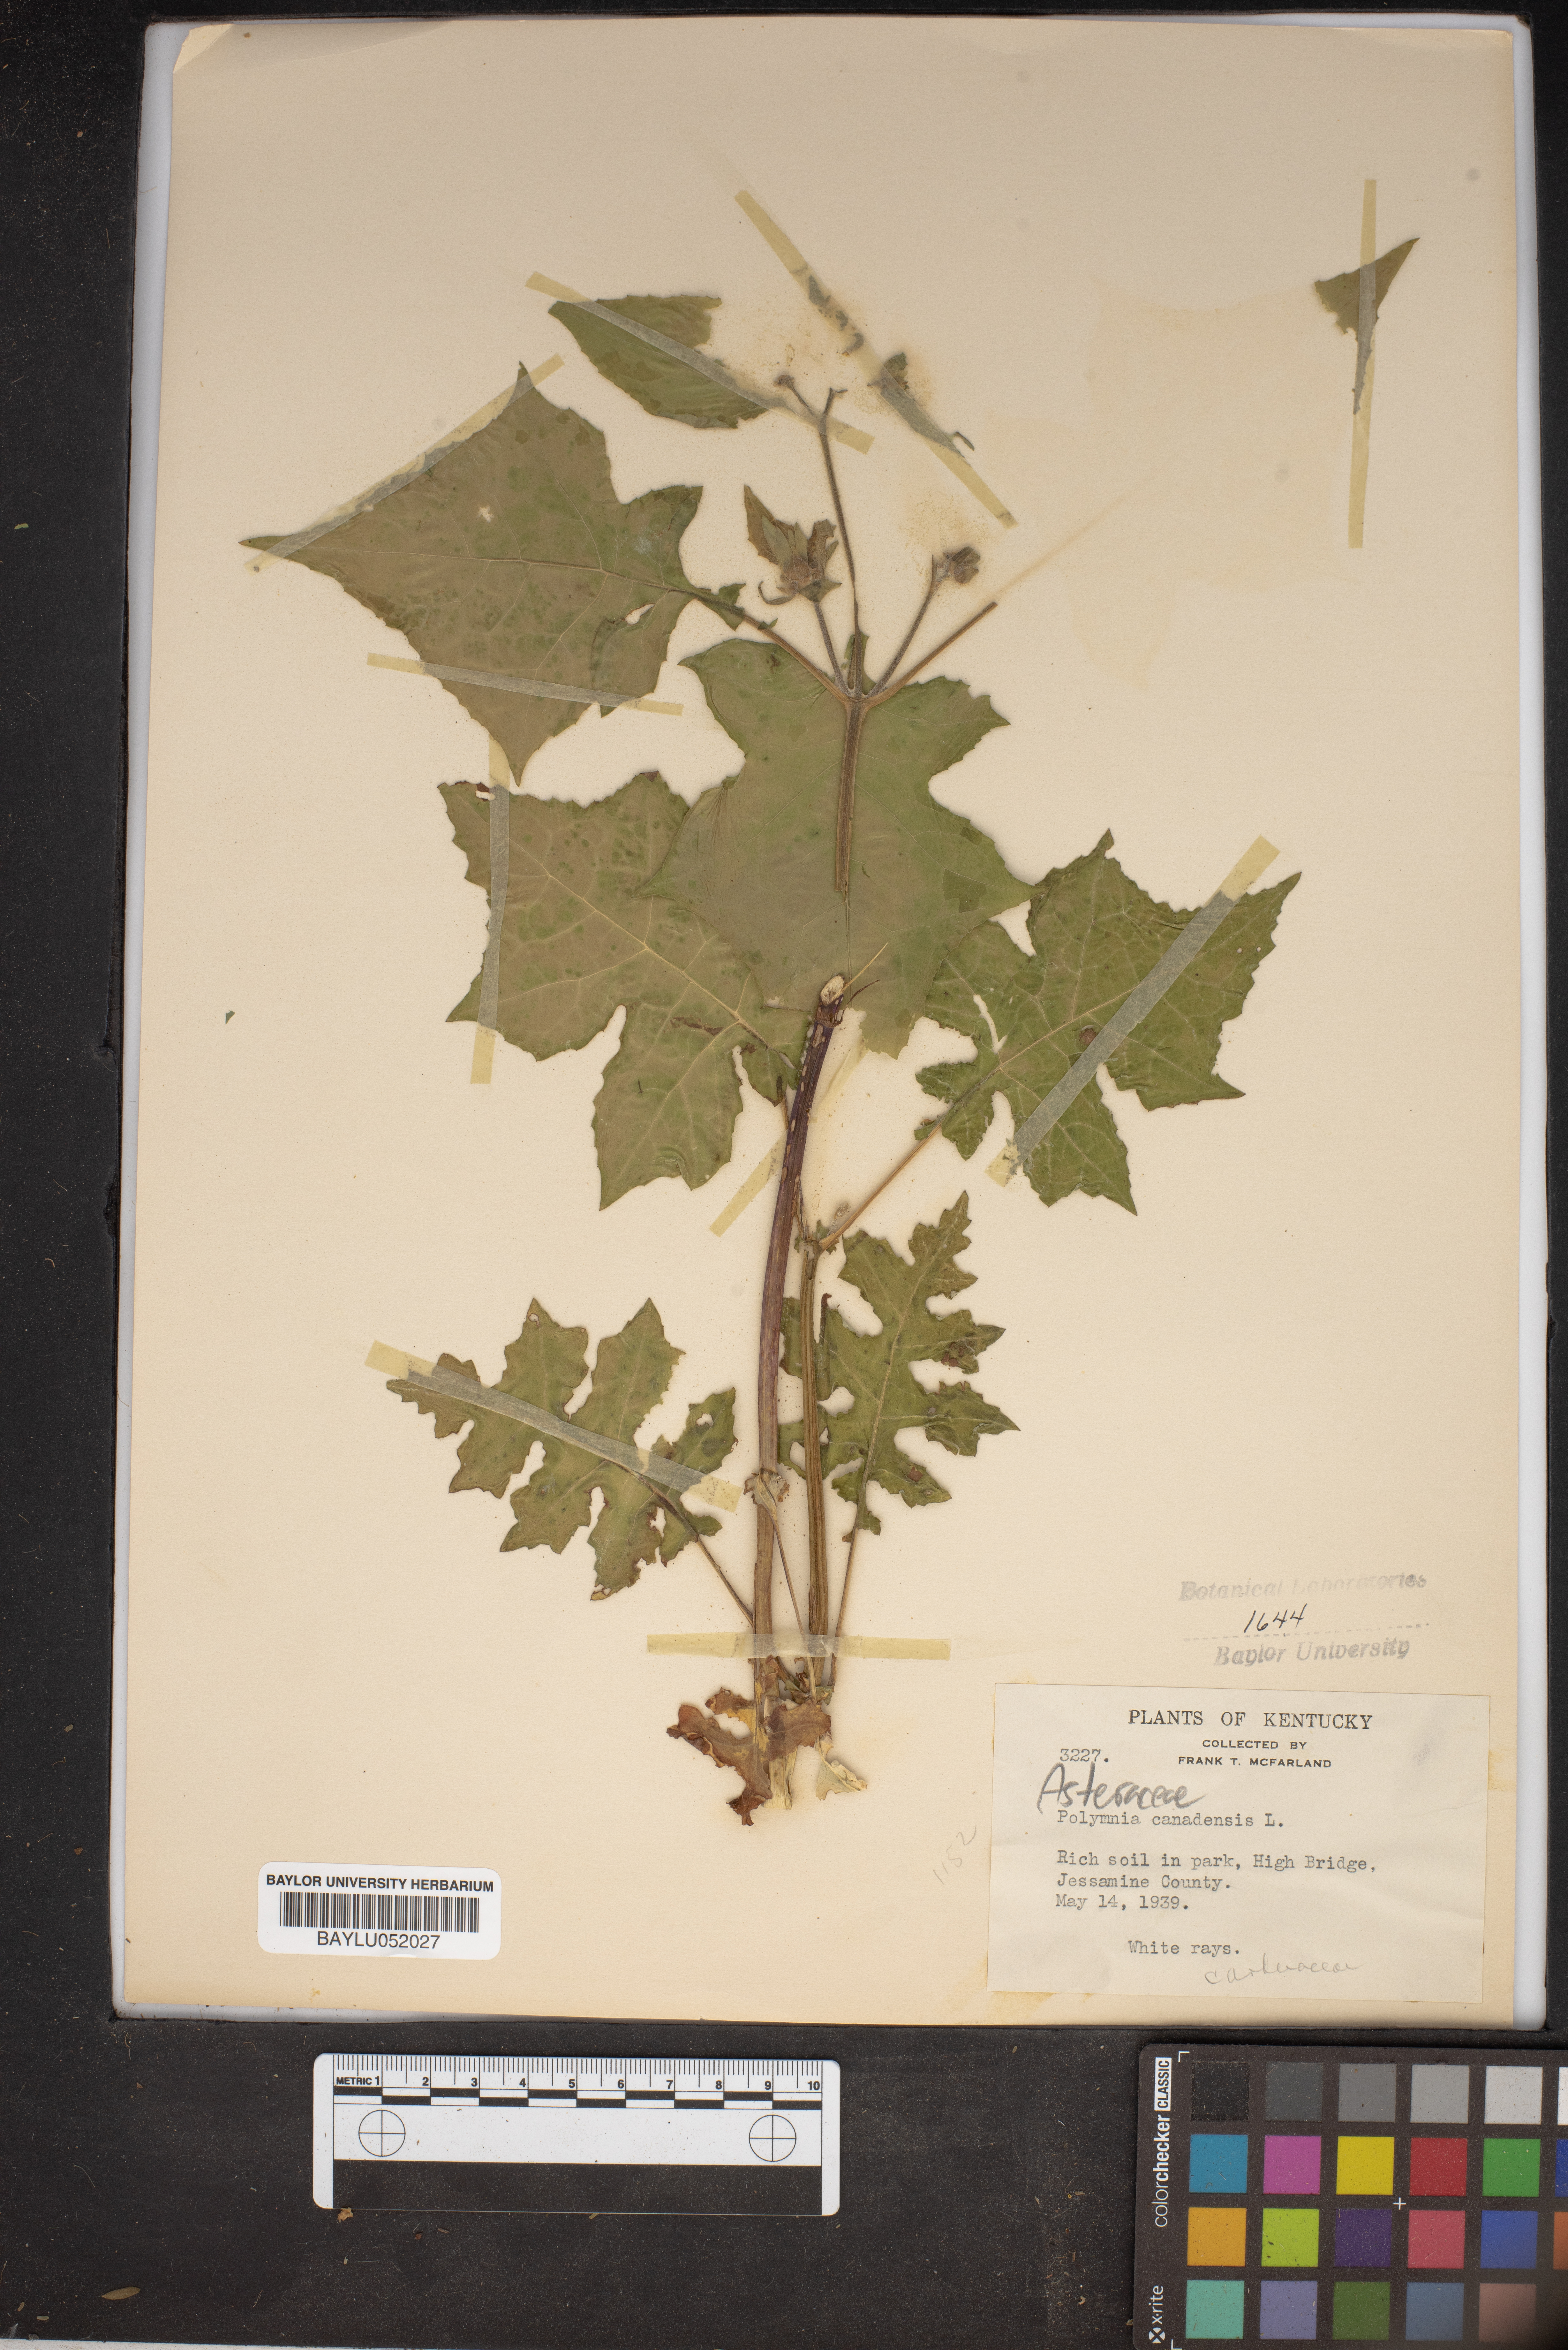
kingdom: Plantae
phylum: Tracheophyta
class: Magnoliopsida
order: Asterales
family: Asteraceae
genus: Polymnia
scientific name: Polymnia canadensis
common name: Pale-flowered leafcup
